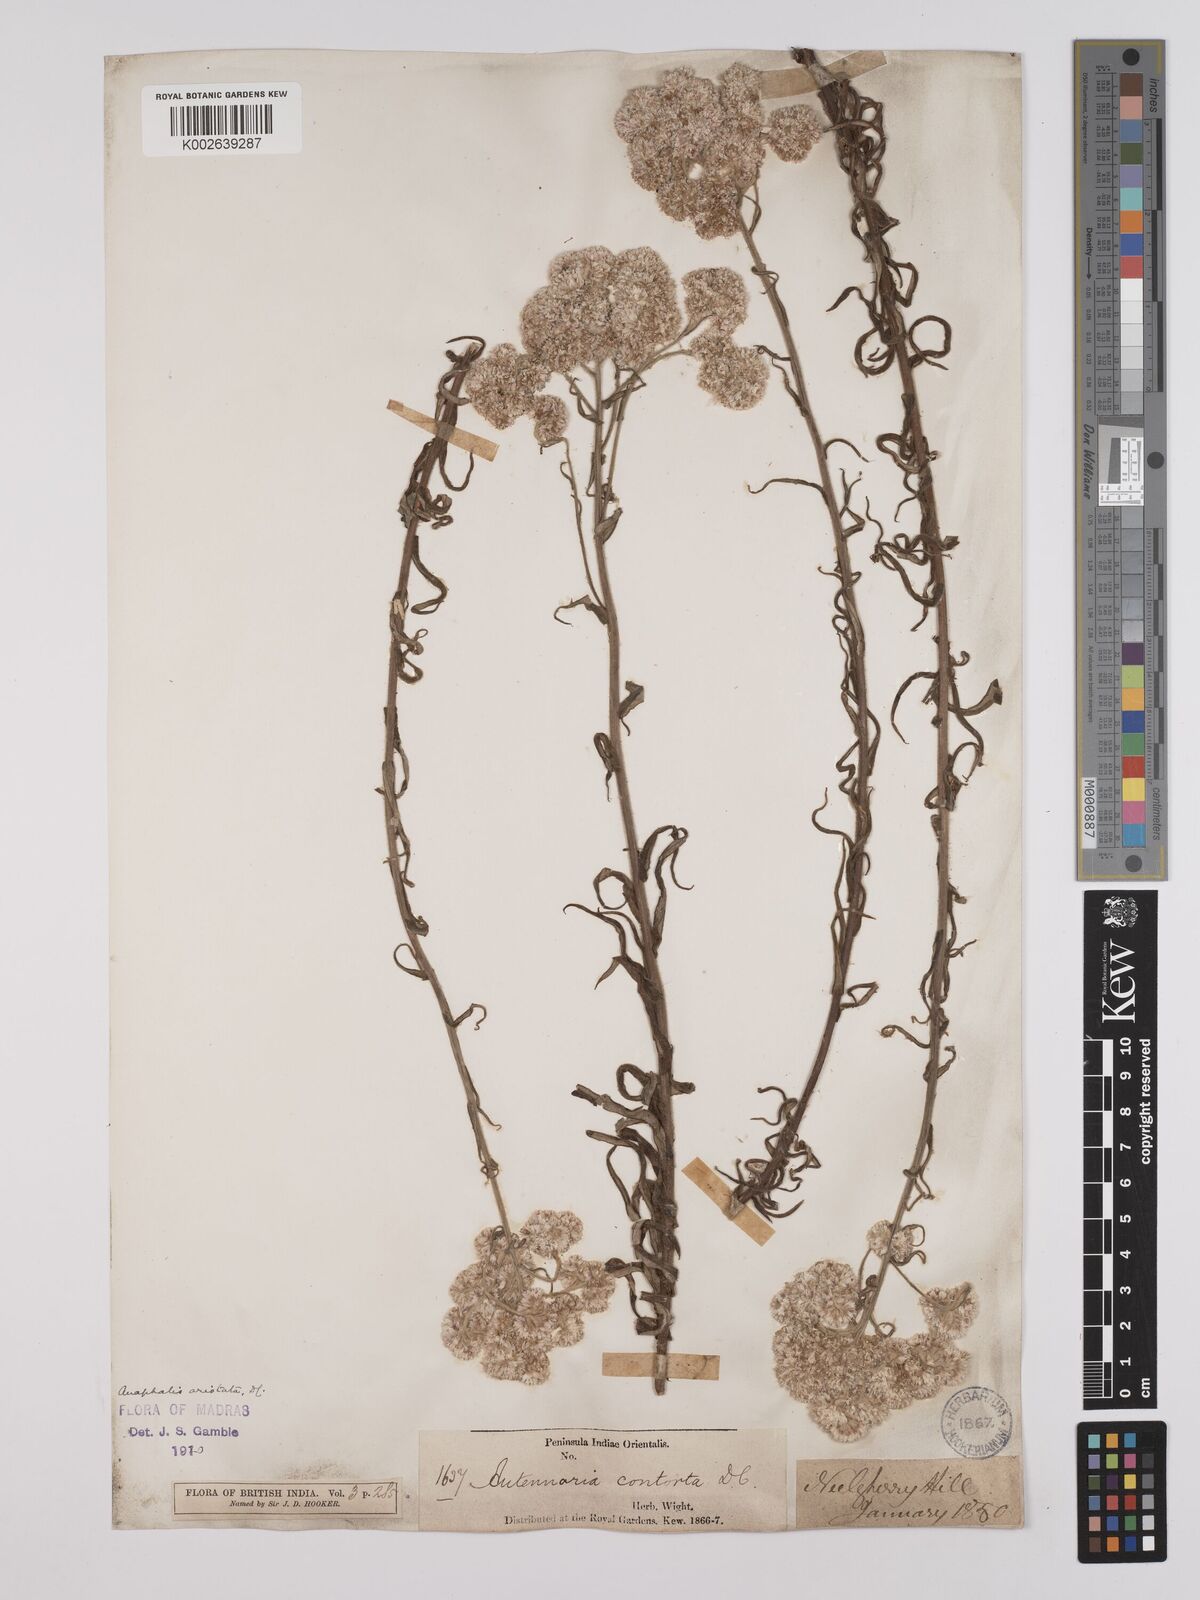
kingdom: Plantae
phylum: Tracheophyta
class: Magnoliopsida
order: Asterales
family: Asteraceae
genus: Anaphalis
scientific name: Anaphalis aristata
